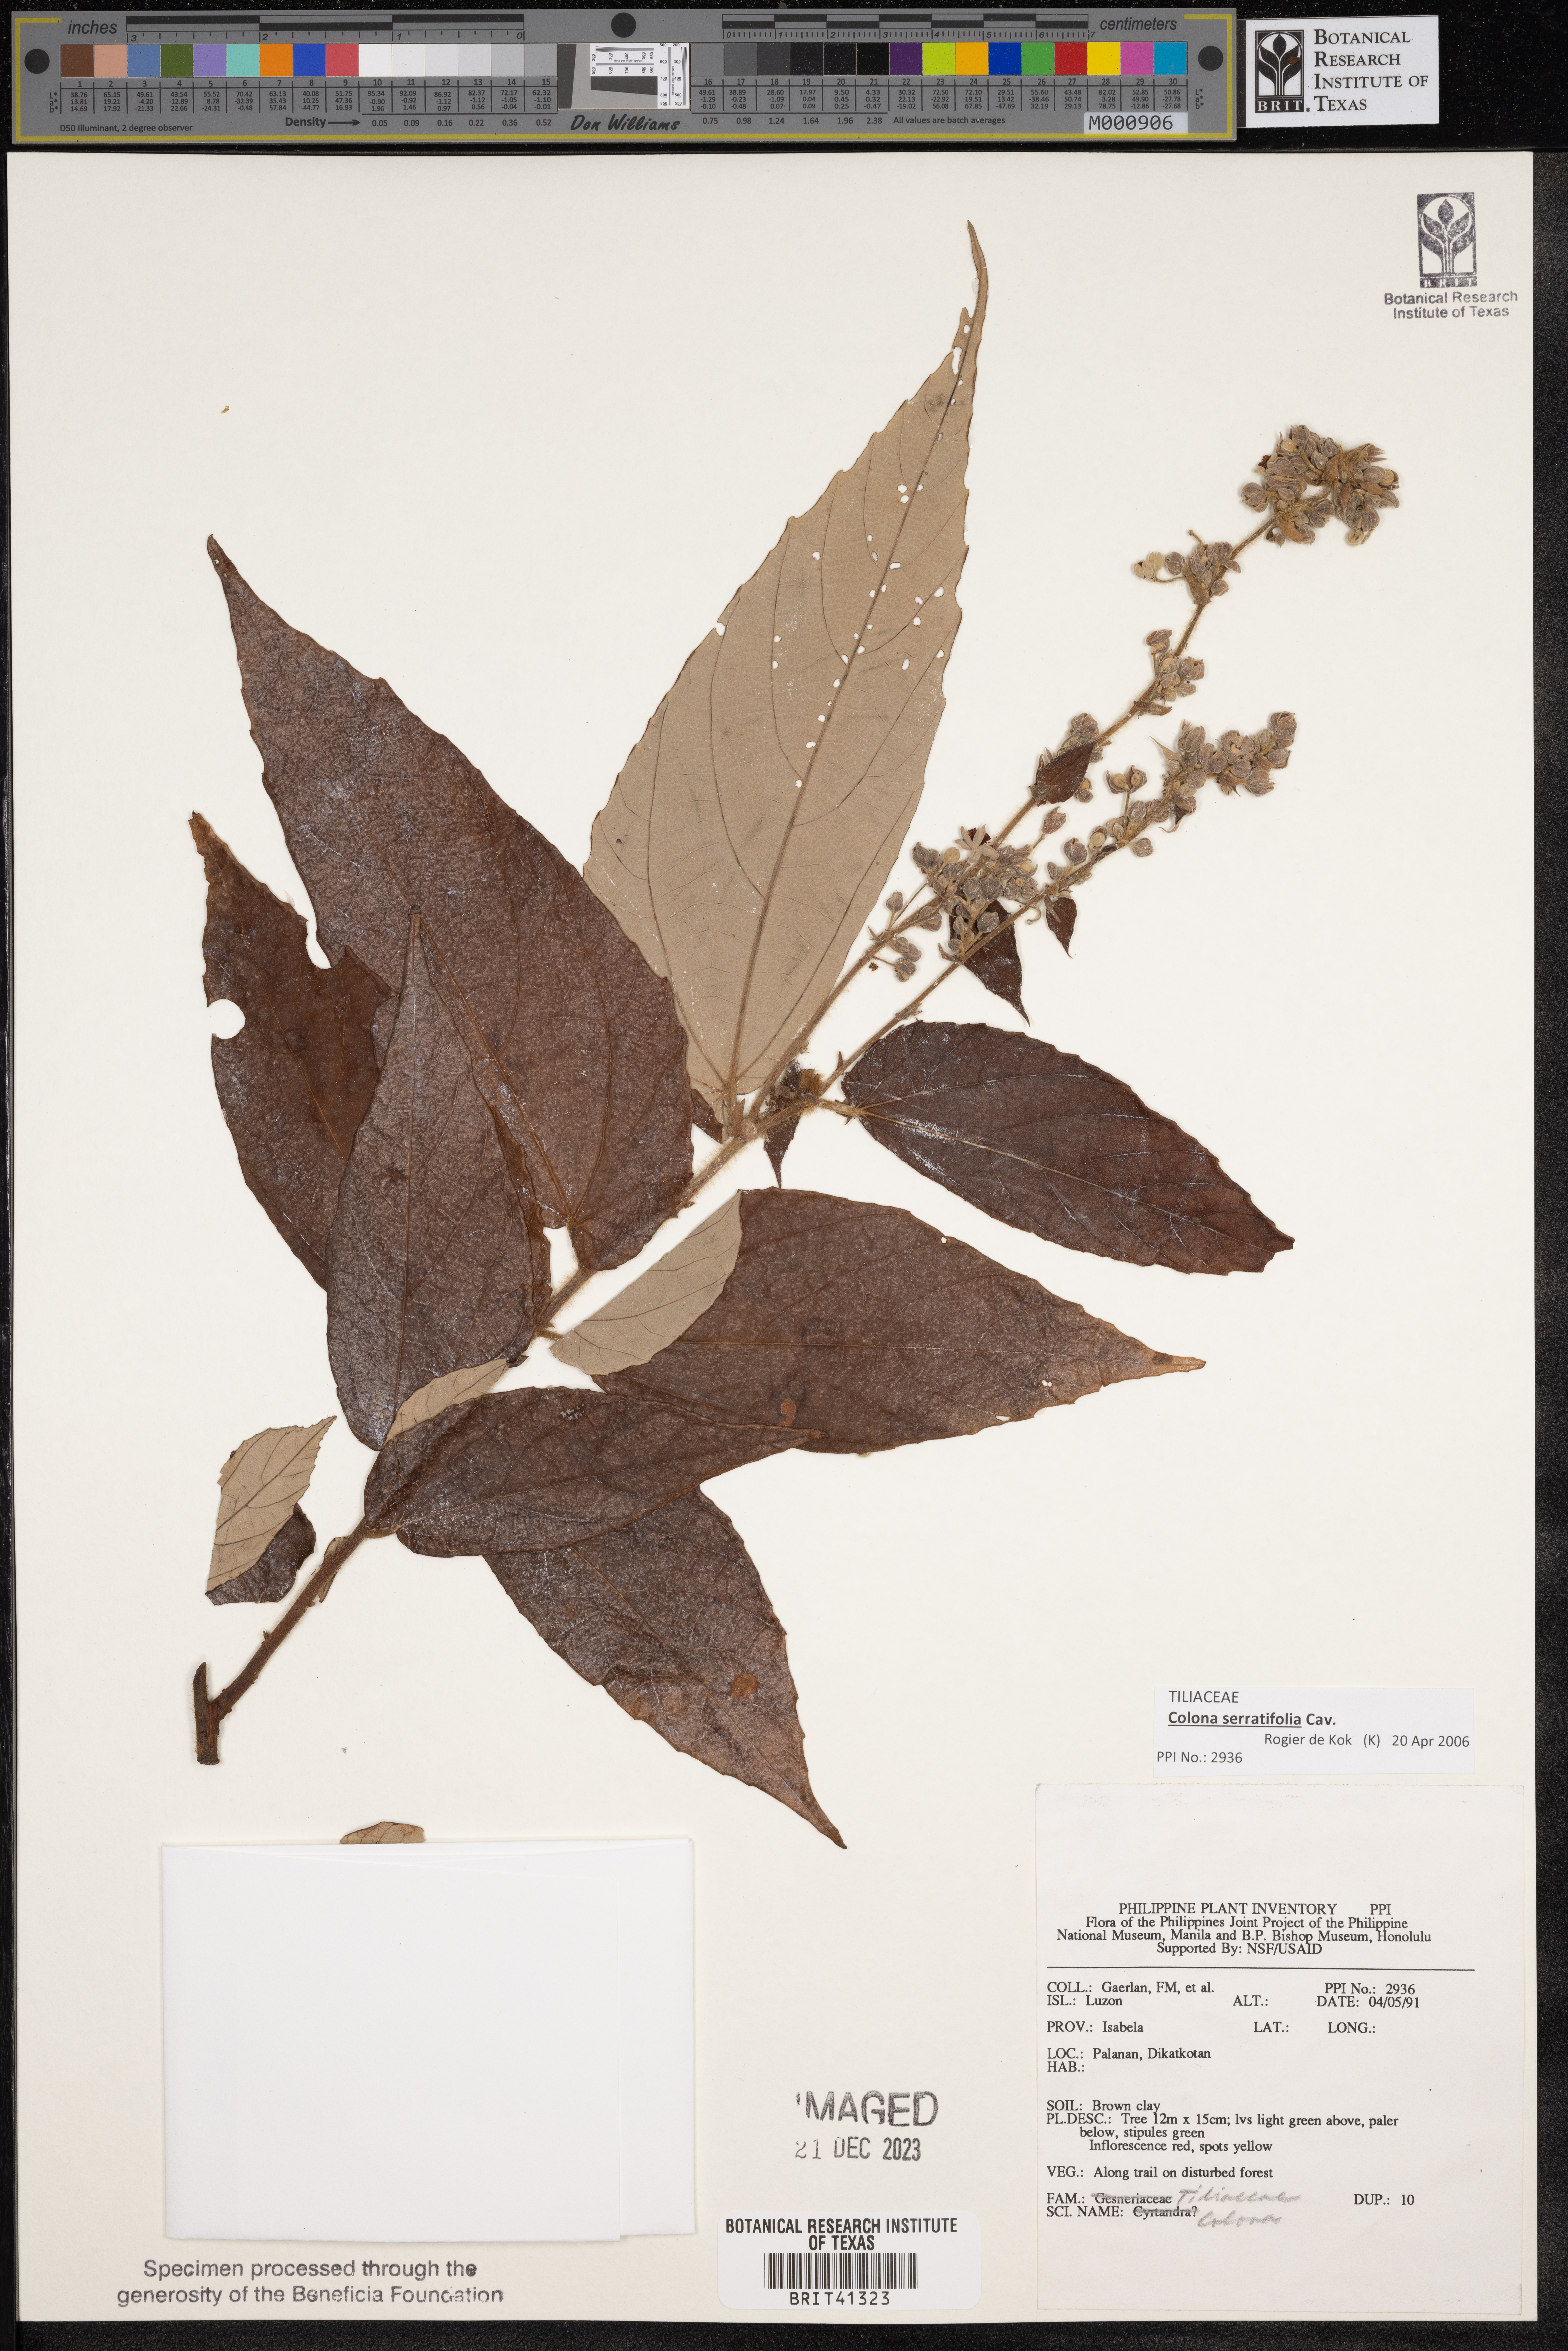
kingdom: Plantae
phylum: Tracheophyta
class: Magnoliopsida
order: Malvales
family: Malvaceae
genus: Colona
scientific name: Colona
